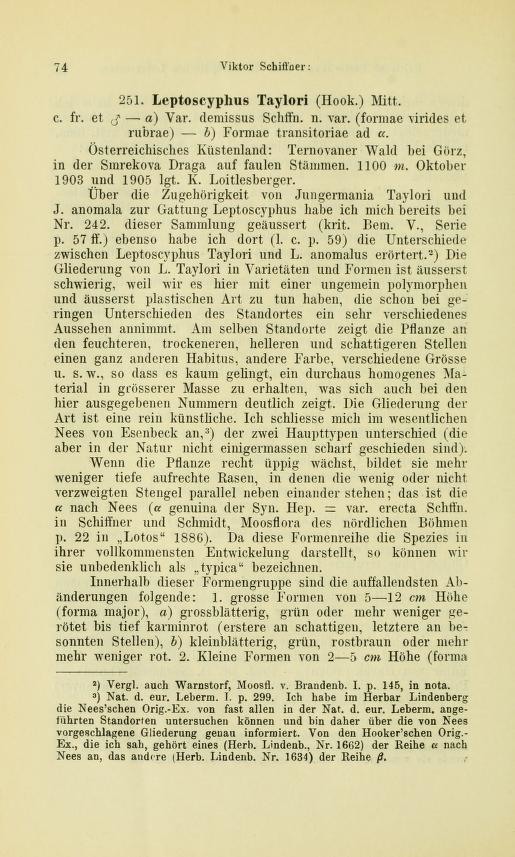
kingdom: Plantae
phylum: Marchantiophyta
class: Jungermanniopsida
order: Jungermanniales
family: Myliaceae
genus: Mylia
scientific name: Mylia taylorii
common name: Taylor s flapwort
